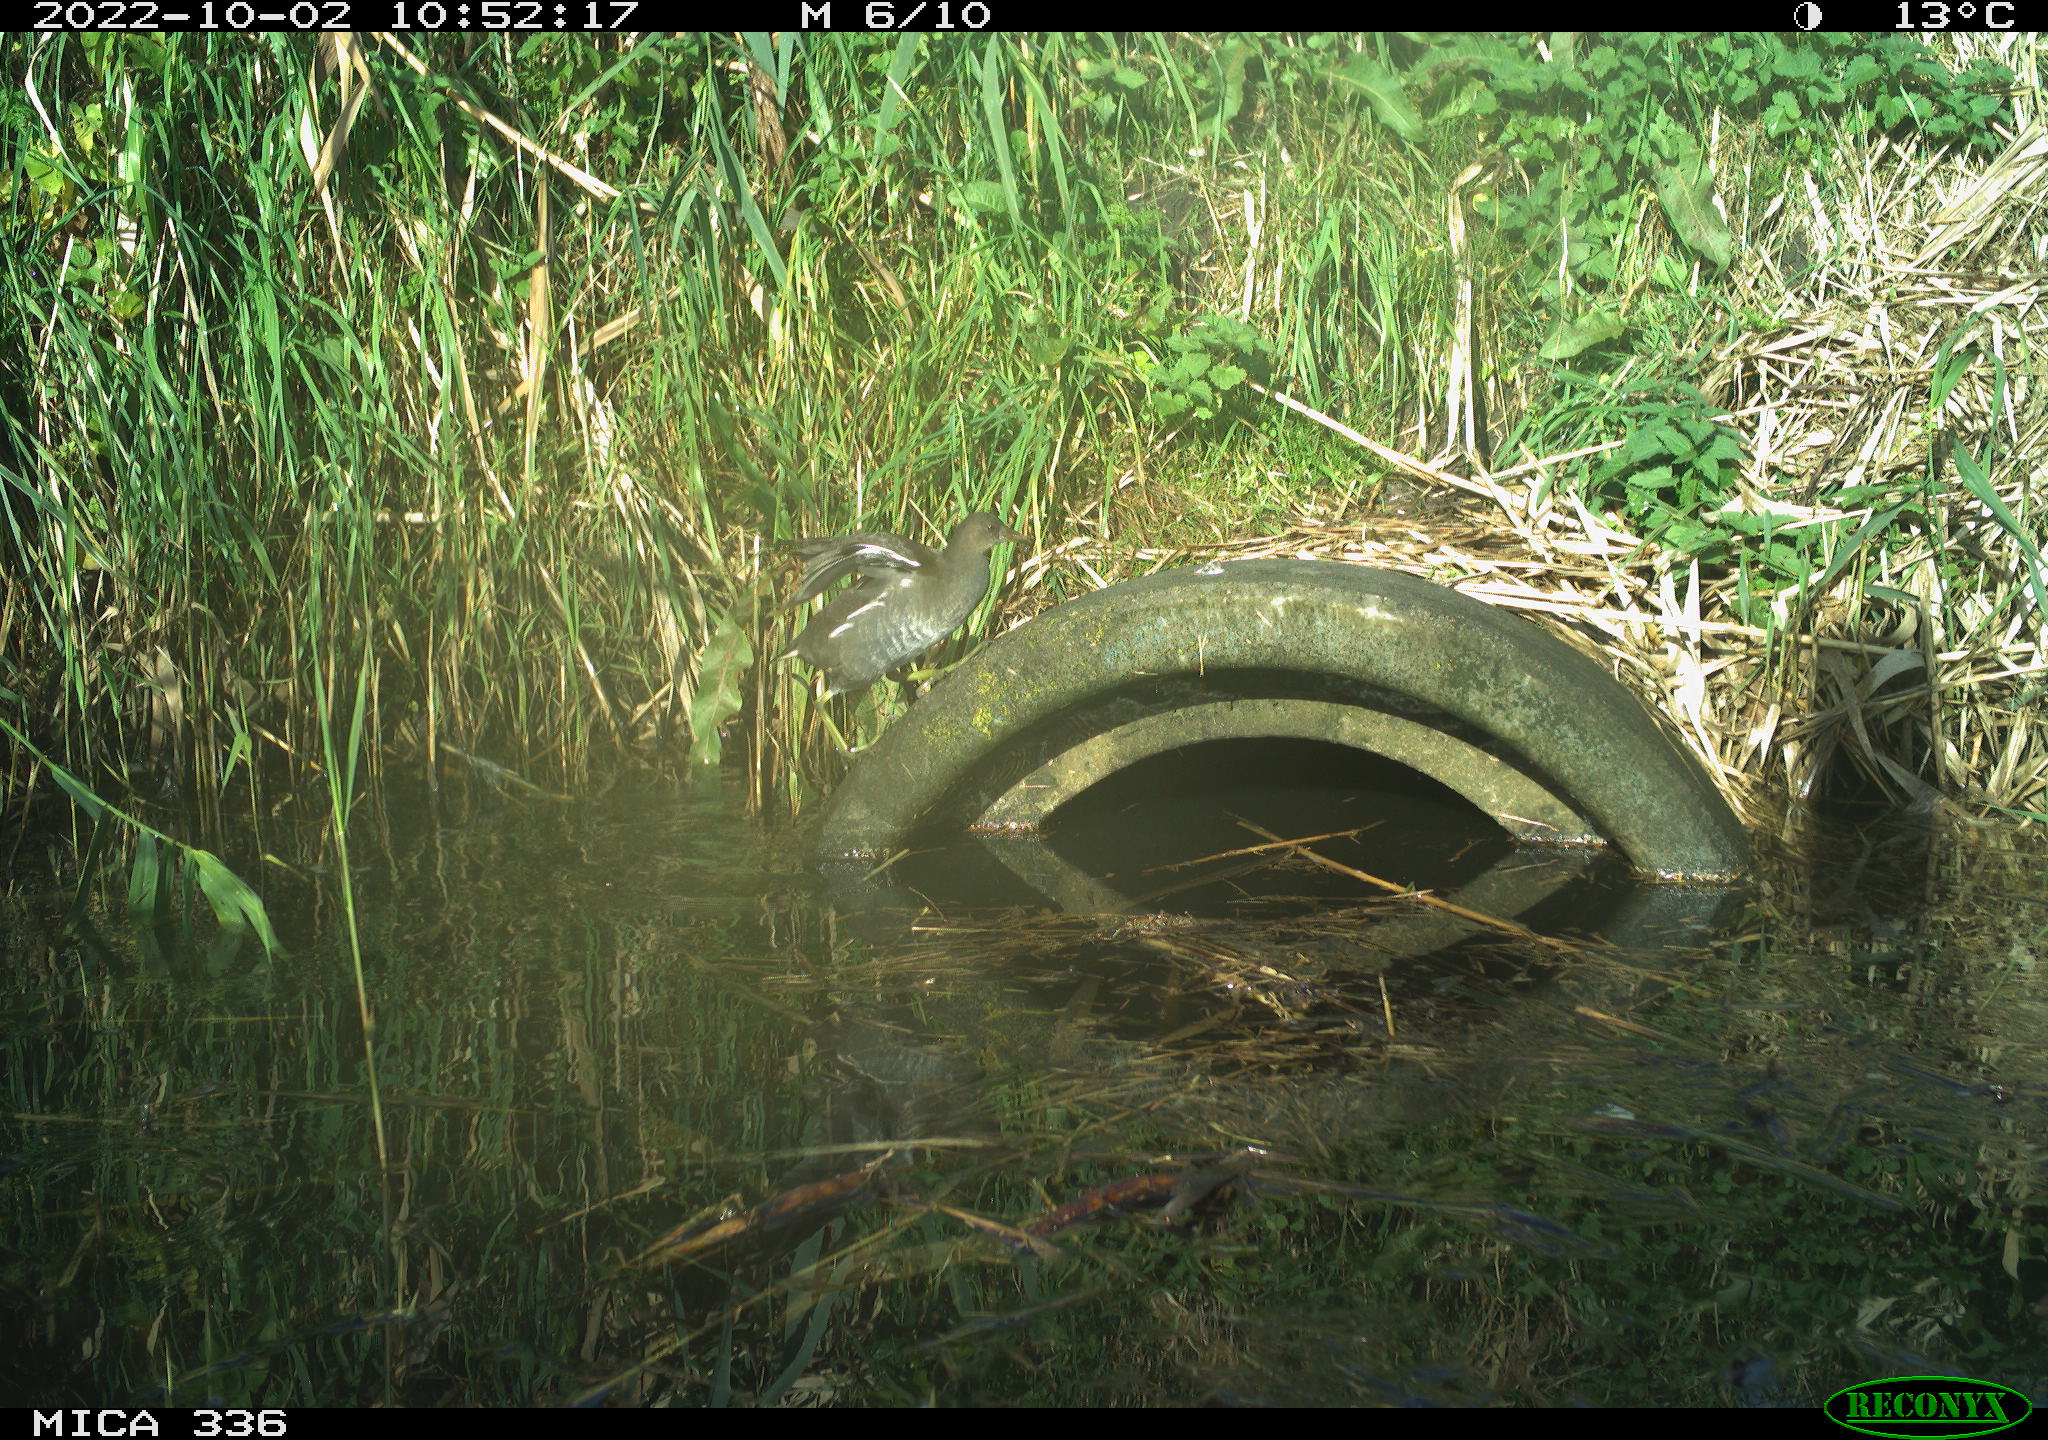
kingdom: Animalia
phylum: Chordata
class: Aves
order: Gruiformes
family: Rallidae
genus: Gallinula
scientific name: Gallinula chloropus
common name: Common moorhen
